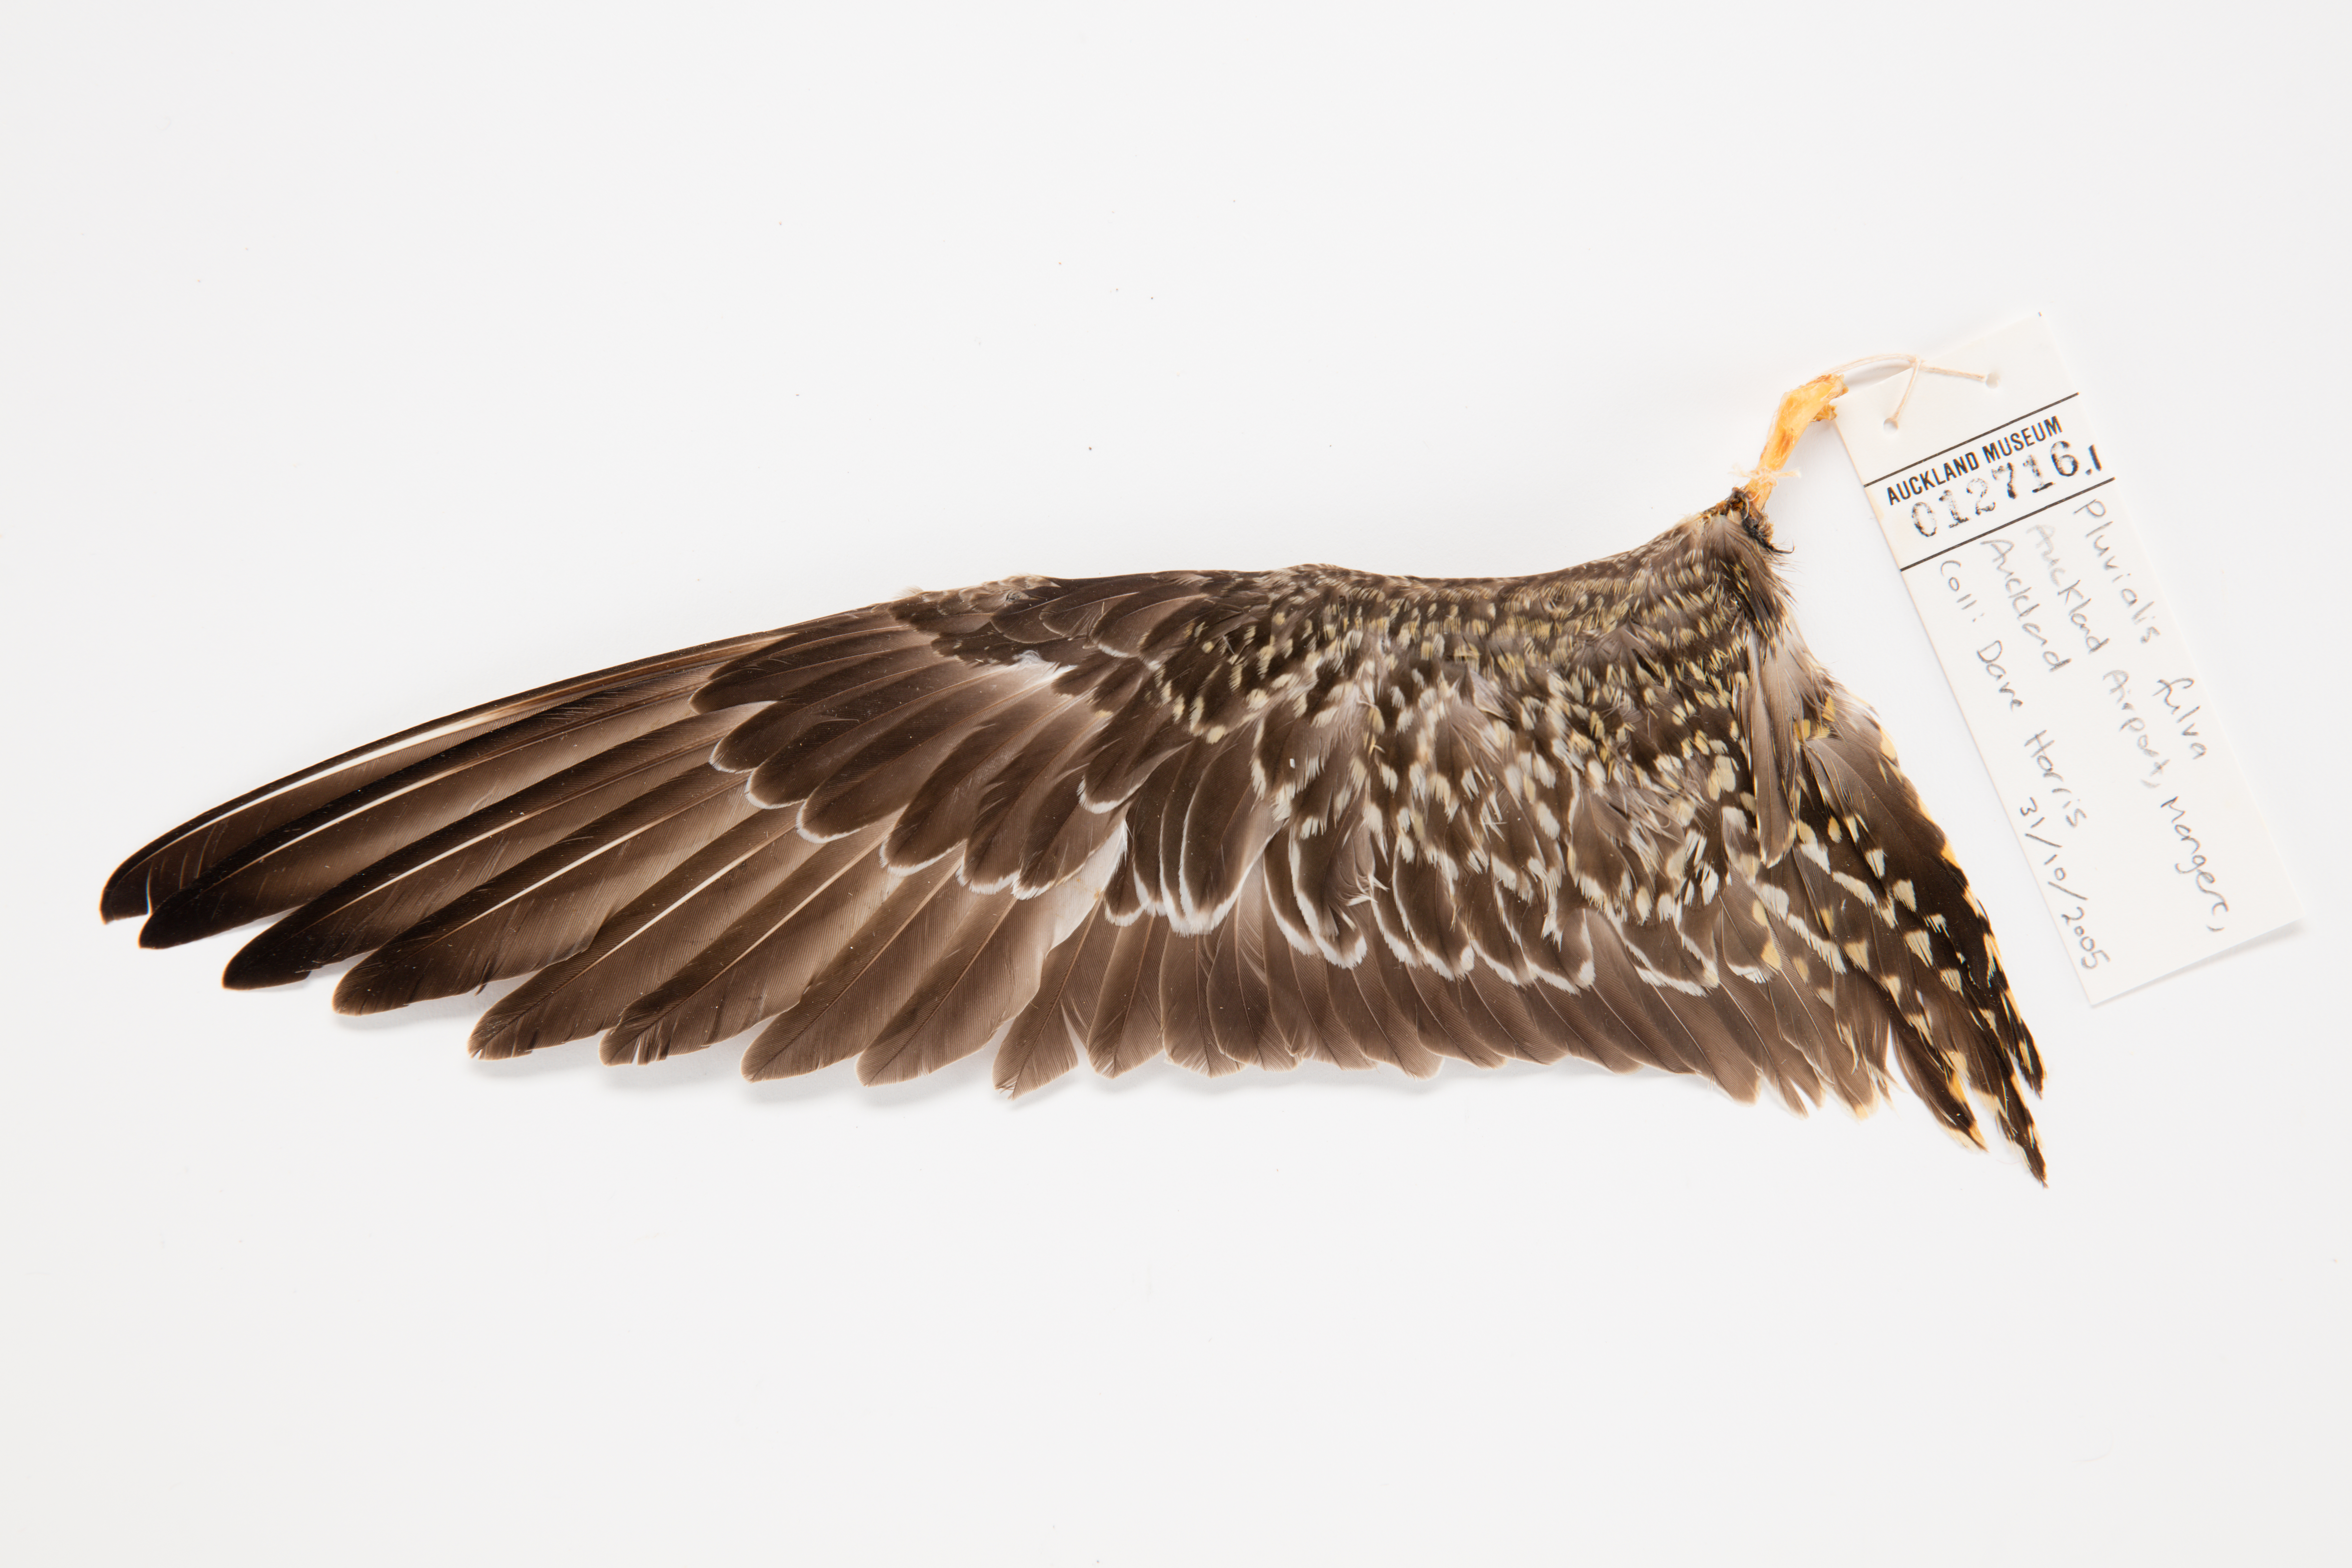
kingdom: Animalia
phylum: Chordata
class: Aves
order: Charadriiformes
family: Charadriidae
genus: Pluvialis
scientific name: Pluvialis fulva
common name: Pacific golden plover
